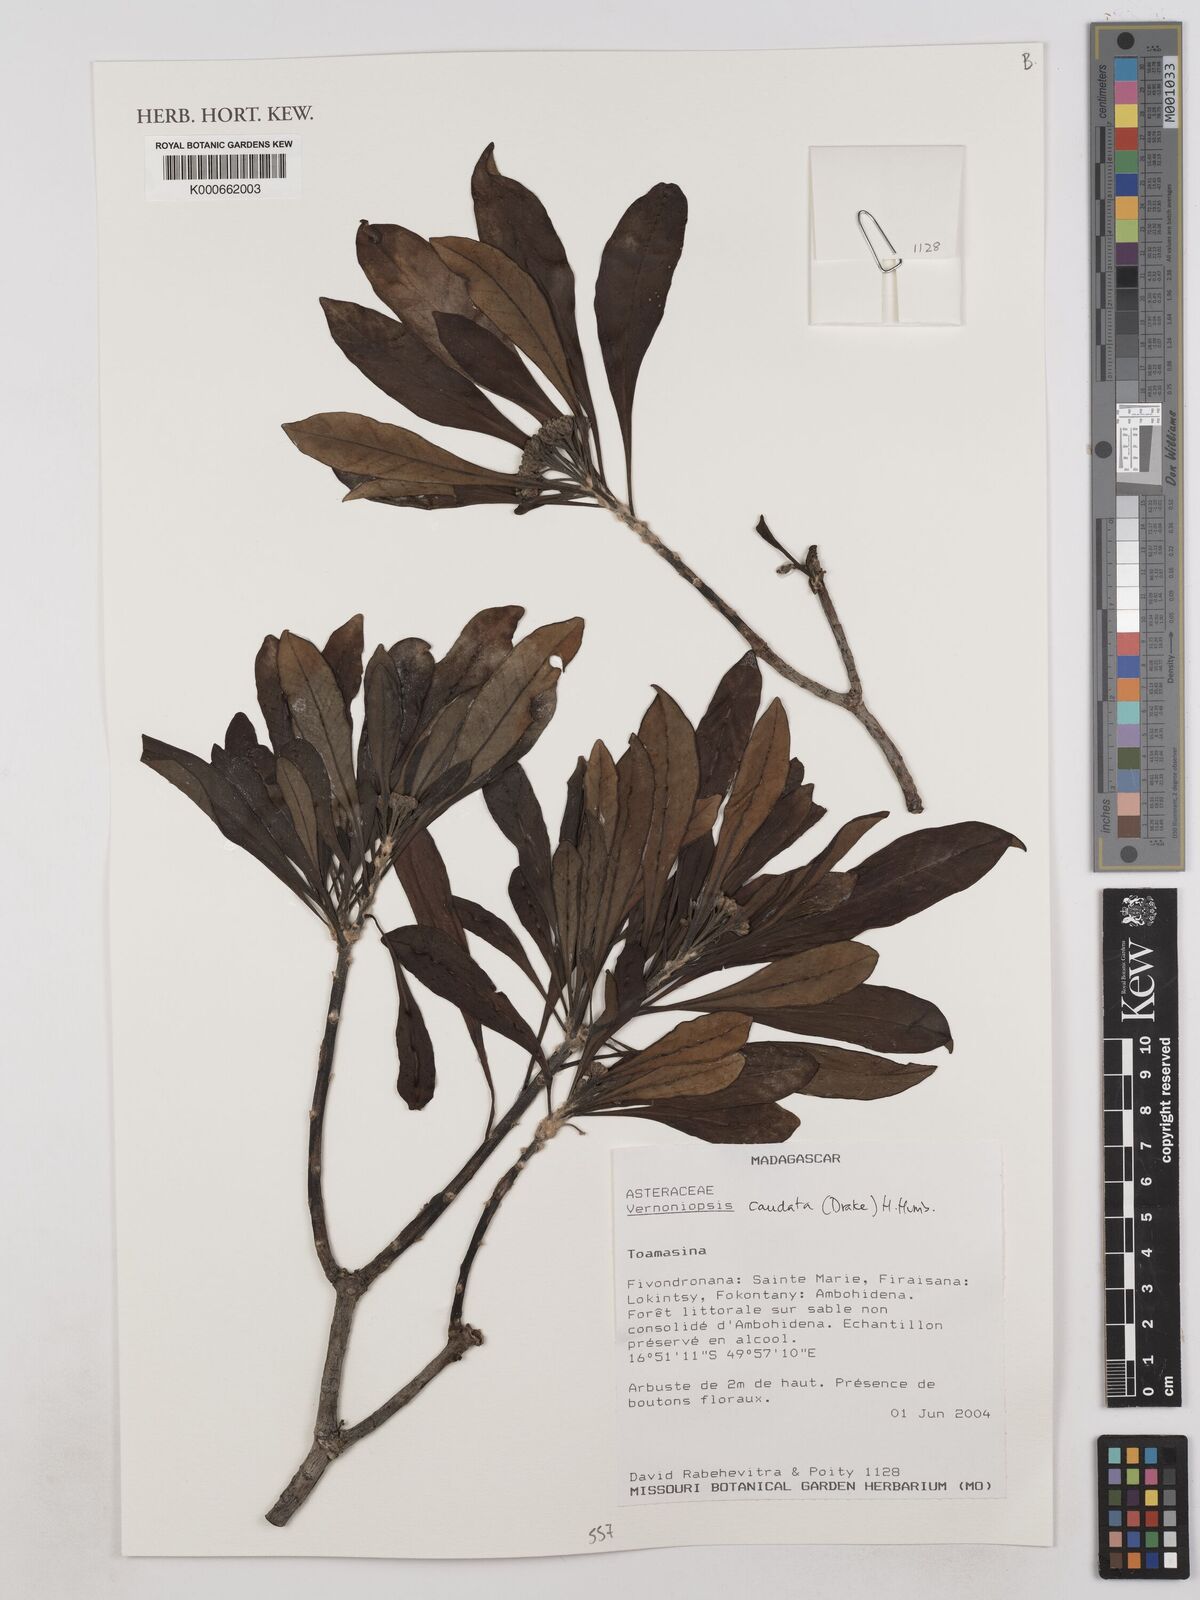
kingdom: Plantae
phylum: Tracheophyta
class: Magnoliopsida
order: Asterales
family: Asteraceae
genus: Vernoniopsis
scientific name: Vernoniopsis caudata
